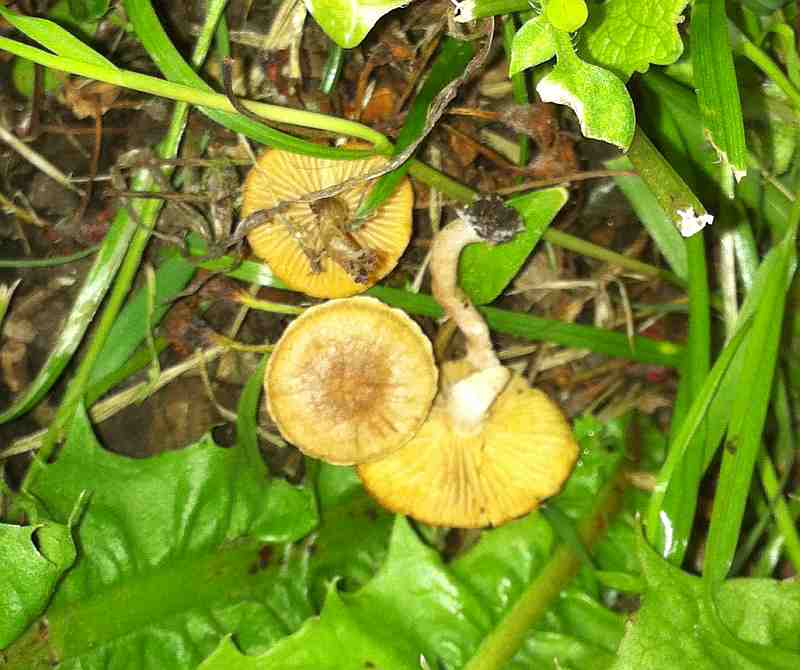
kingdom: Fungi
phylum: Basidiomycota
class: Agaricomycetes
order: Agaricales
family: Tubariaceae
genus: Tubaria
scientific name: Tubaria dispersa
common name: tjørne-fnughat
